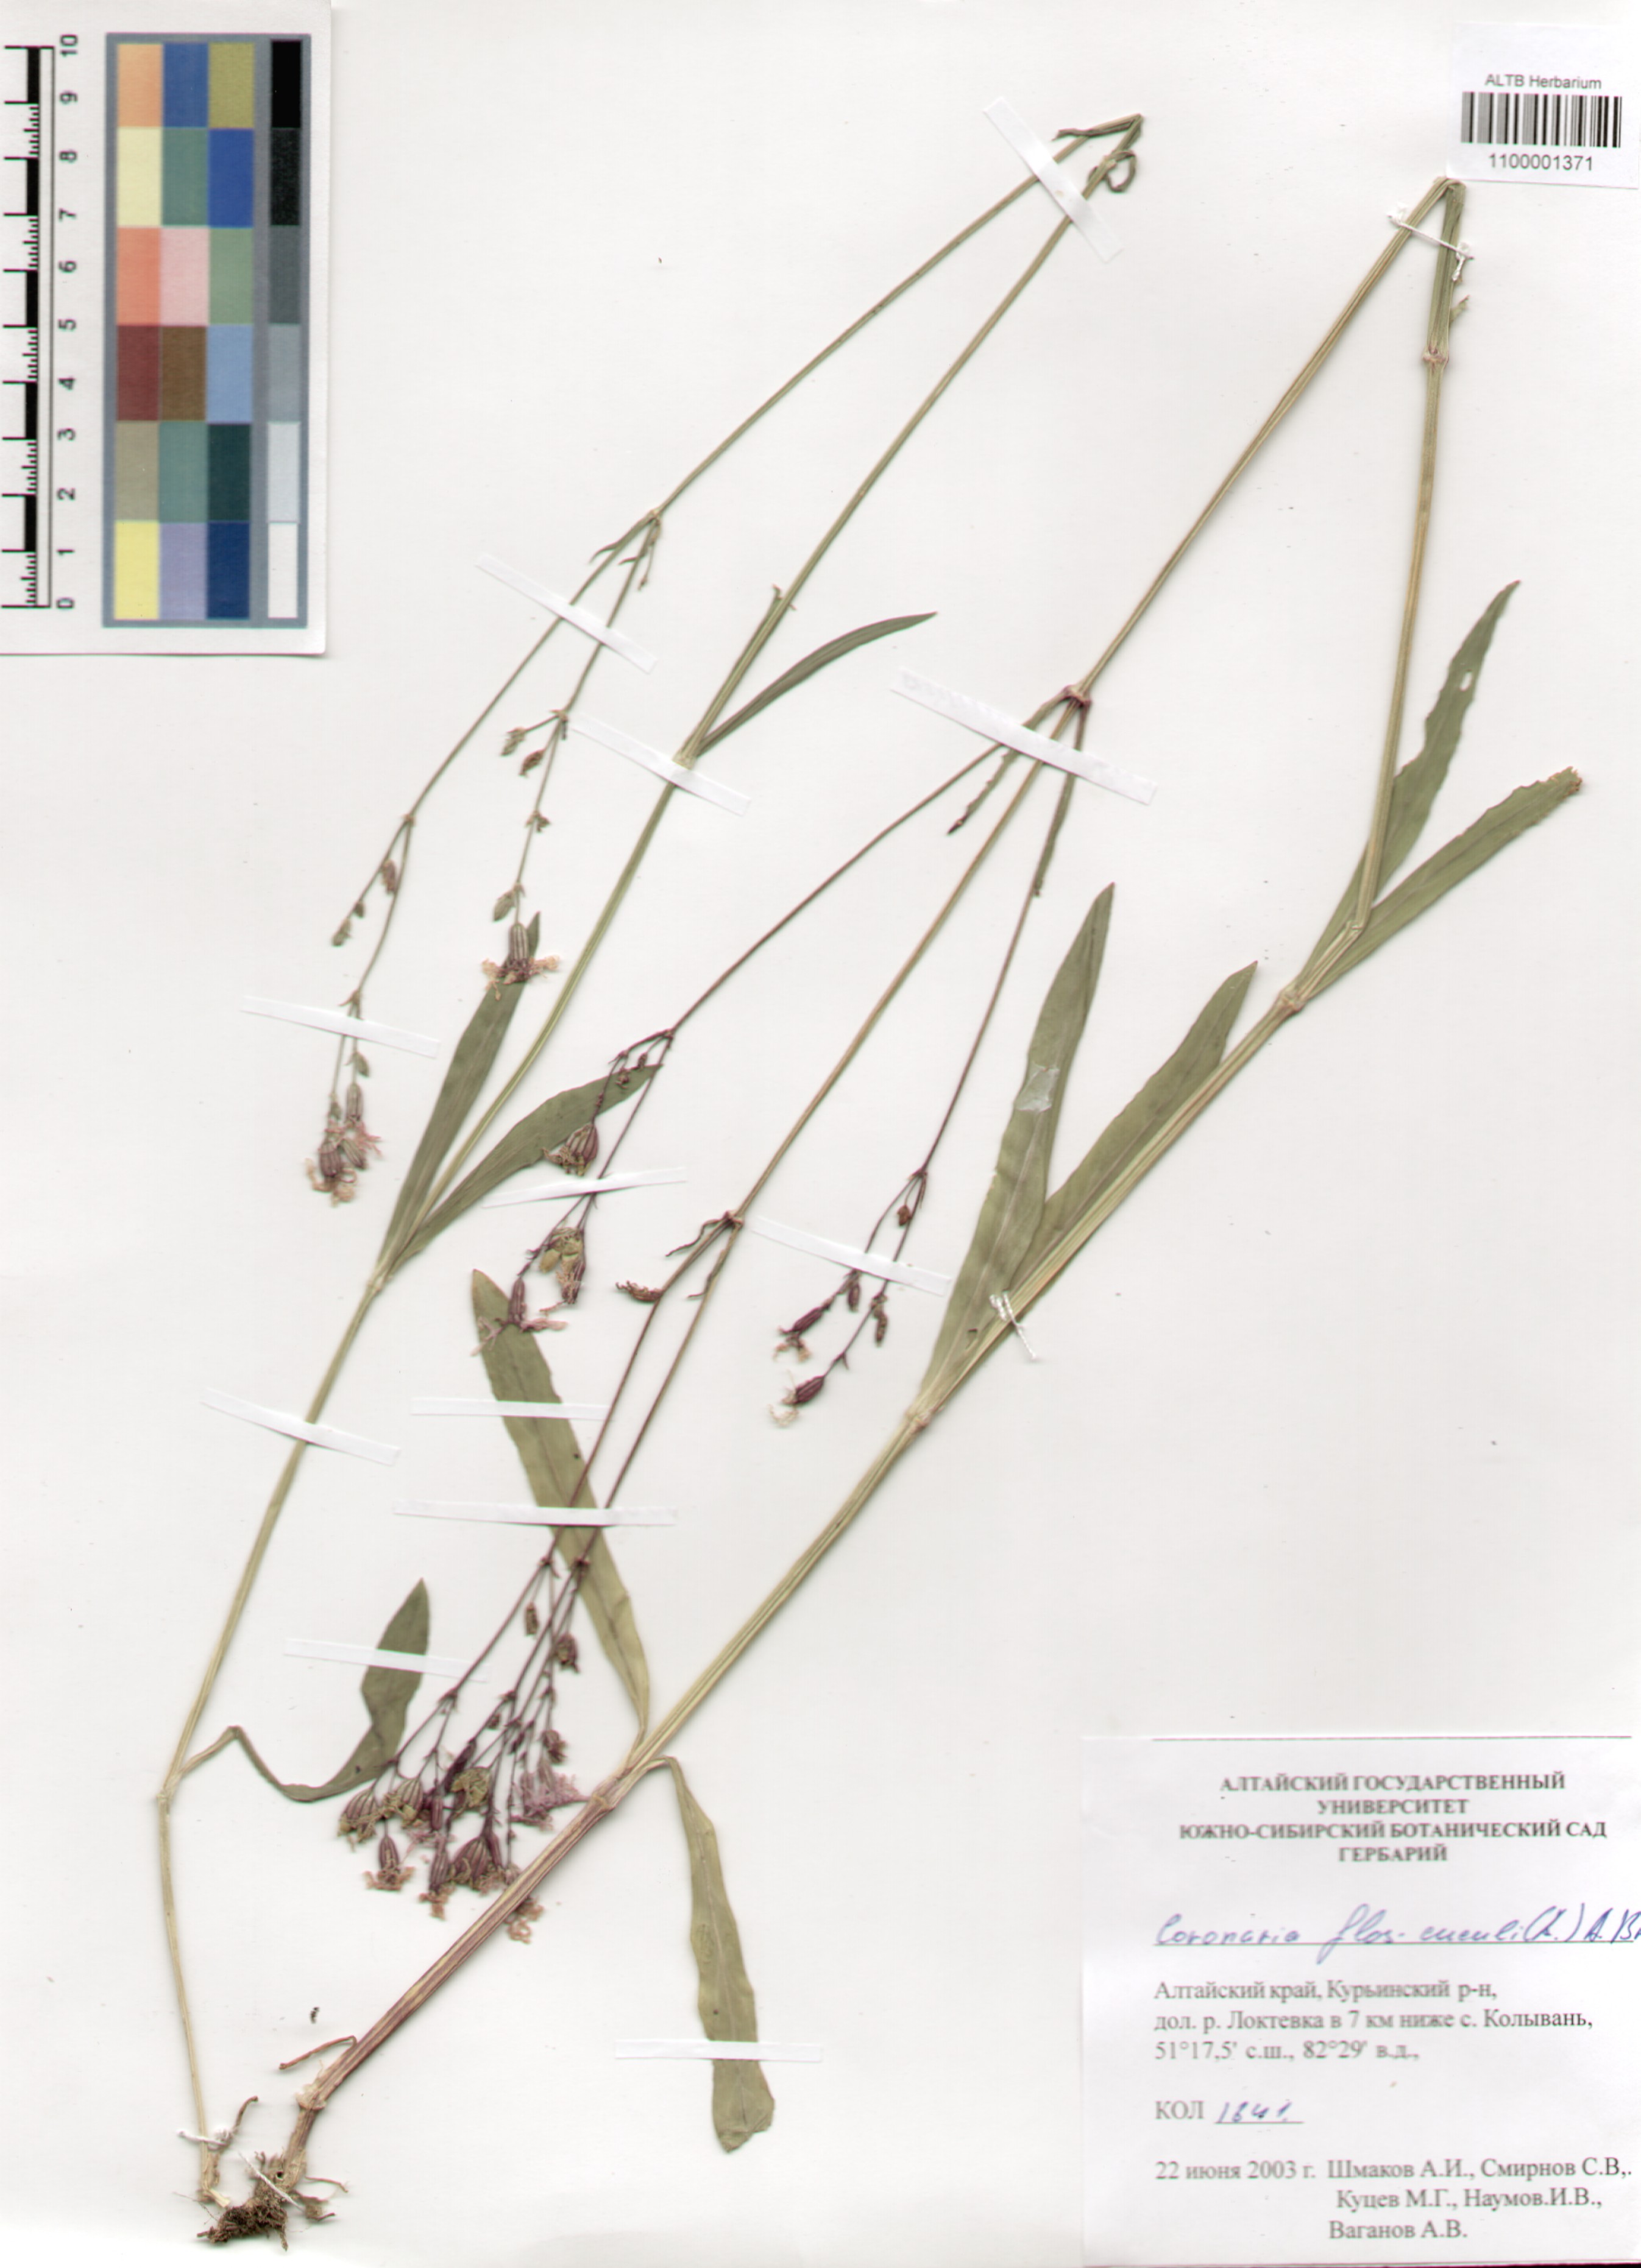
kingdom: Plantae
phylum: Tracheophyta
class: Magnoliopsida
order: Caryophyllales
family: Caryophyllaceae
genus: Silene
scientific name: Silene flos-cuculi
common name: Ragged-robin
